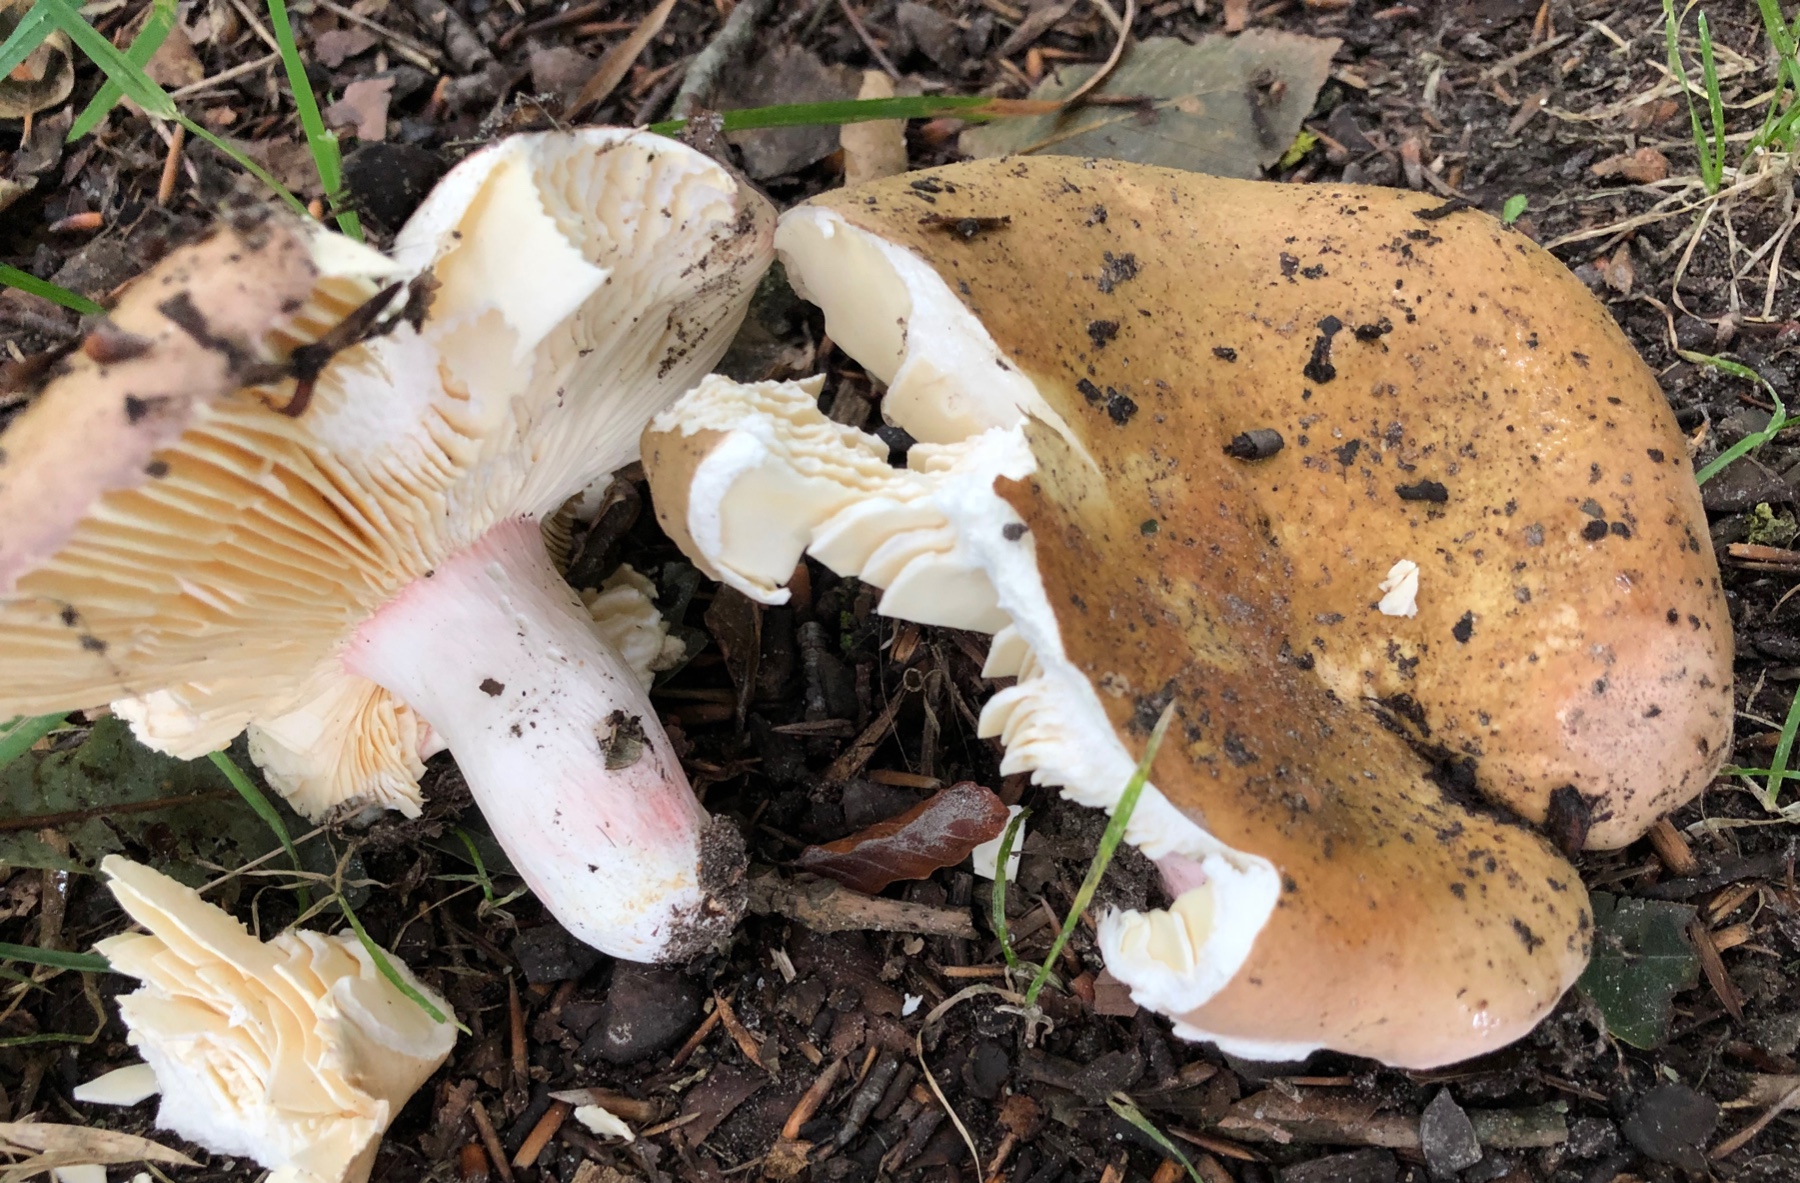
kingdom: Fungi
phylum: Basidiomycota
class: Agaricomycetes
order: Russulales
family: Russulaceae
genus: Russula
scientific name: Russula olivacea
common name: stor skørhat
